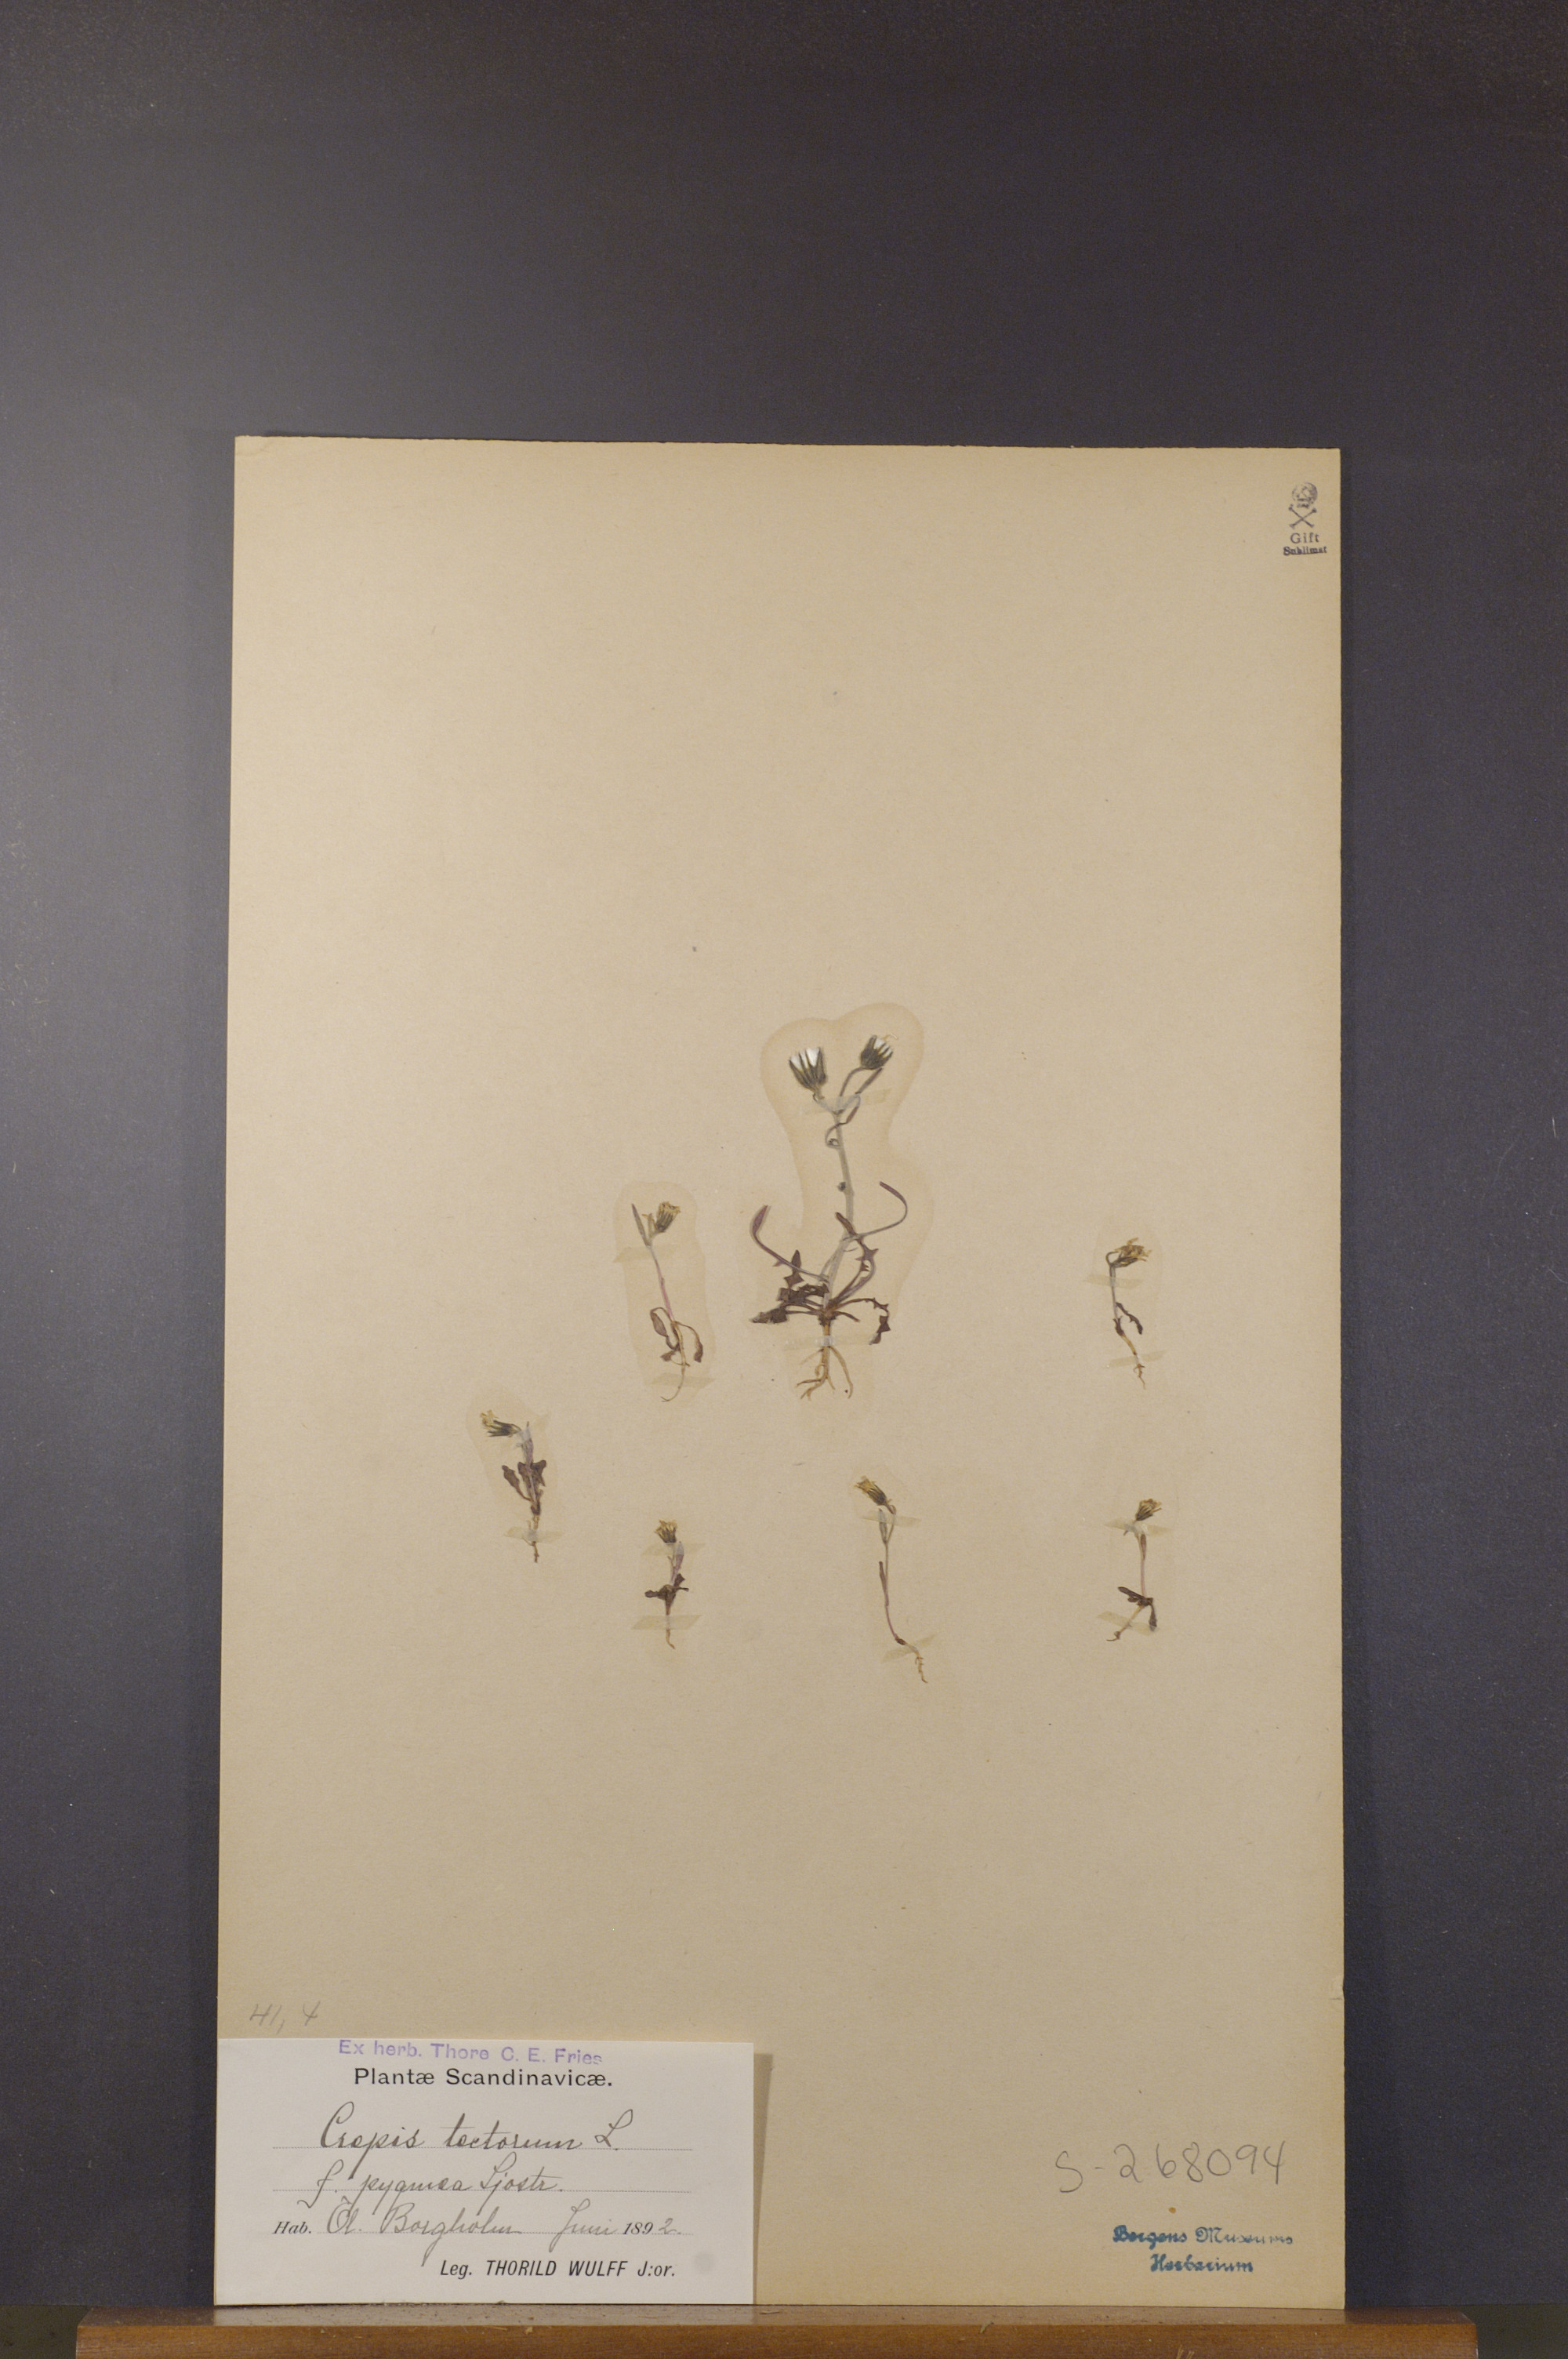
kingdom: Plantae
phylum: Tracheophyta
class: Magnoliopsida
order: Asterales
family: Asteraceae
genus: Crepis
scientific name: Crepis tectorum
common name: Narrow-leaved hawk's-beard
